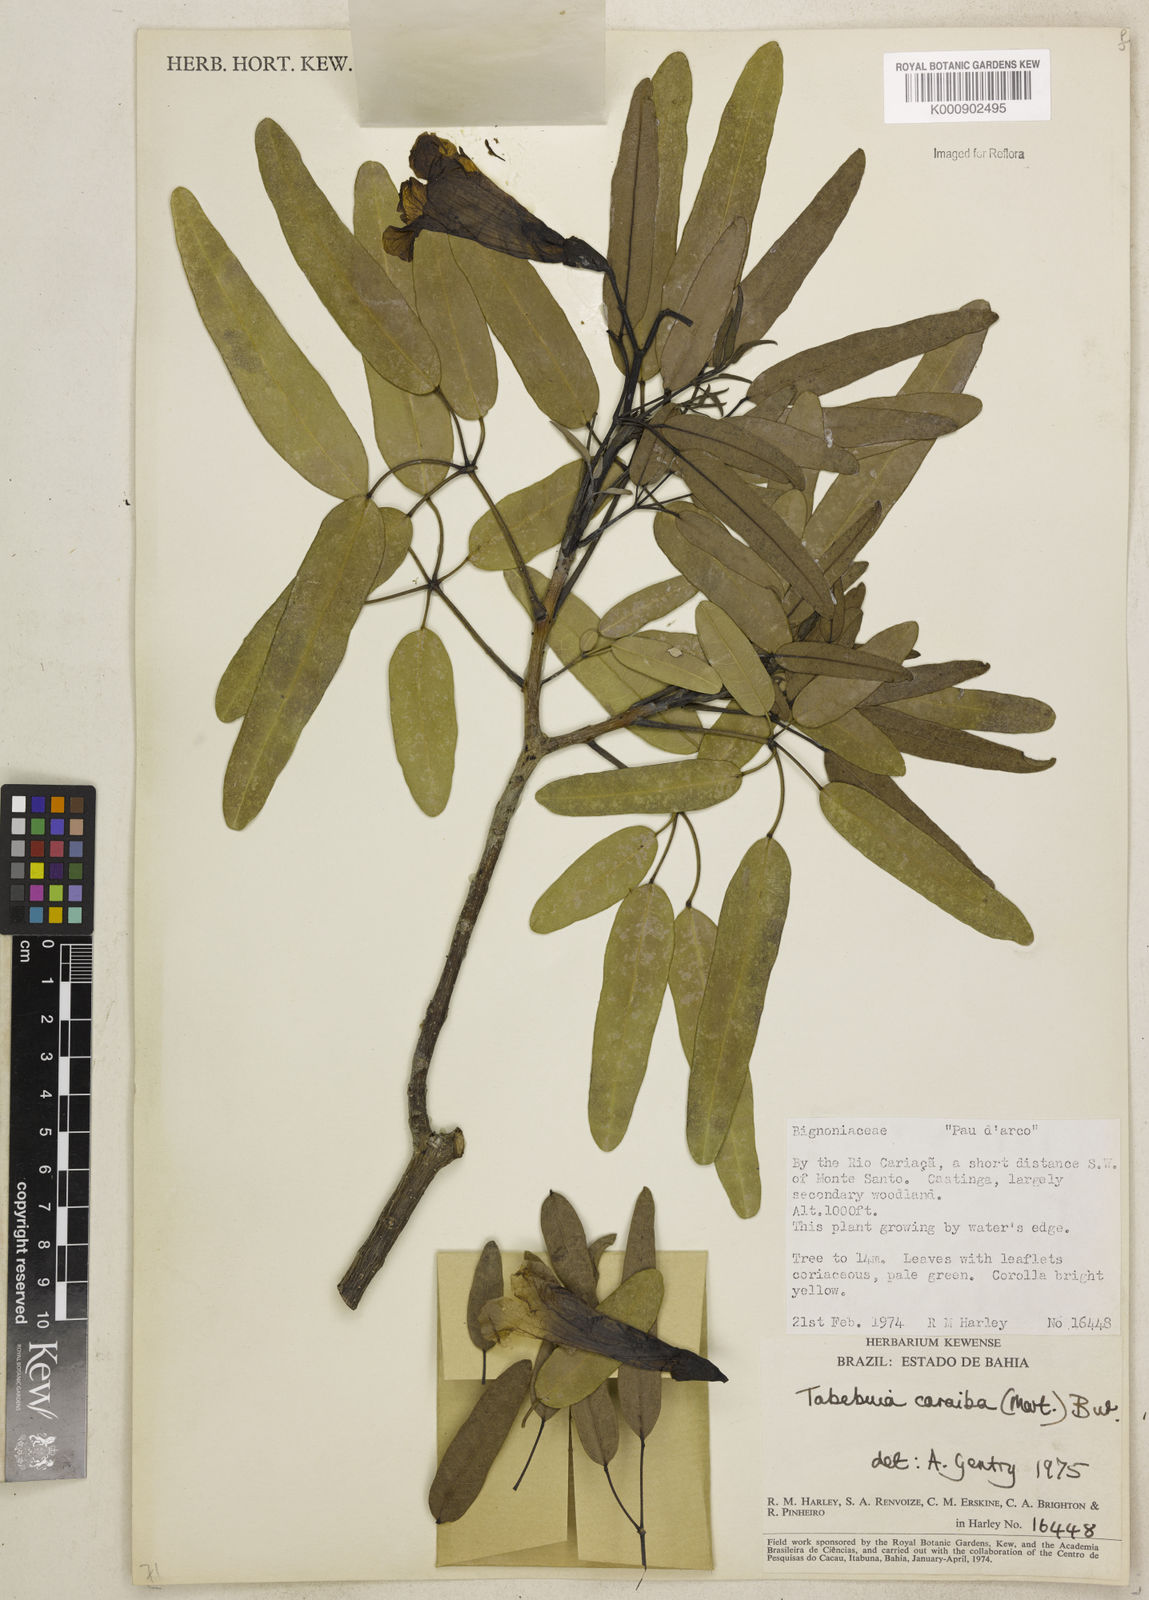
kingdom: Plantae
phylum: Tracheophyta
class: Magnoliopsida
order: Lamiales
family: Bignoniaceae
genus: Tabebuia
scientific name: Tabebuia aurea
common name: Caribbean trumpet-tree
